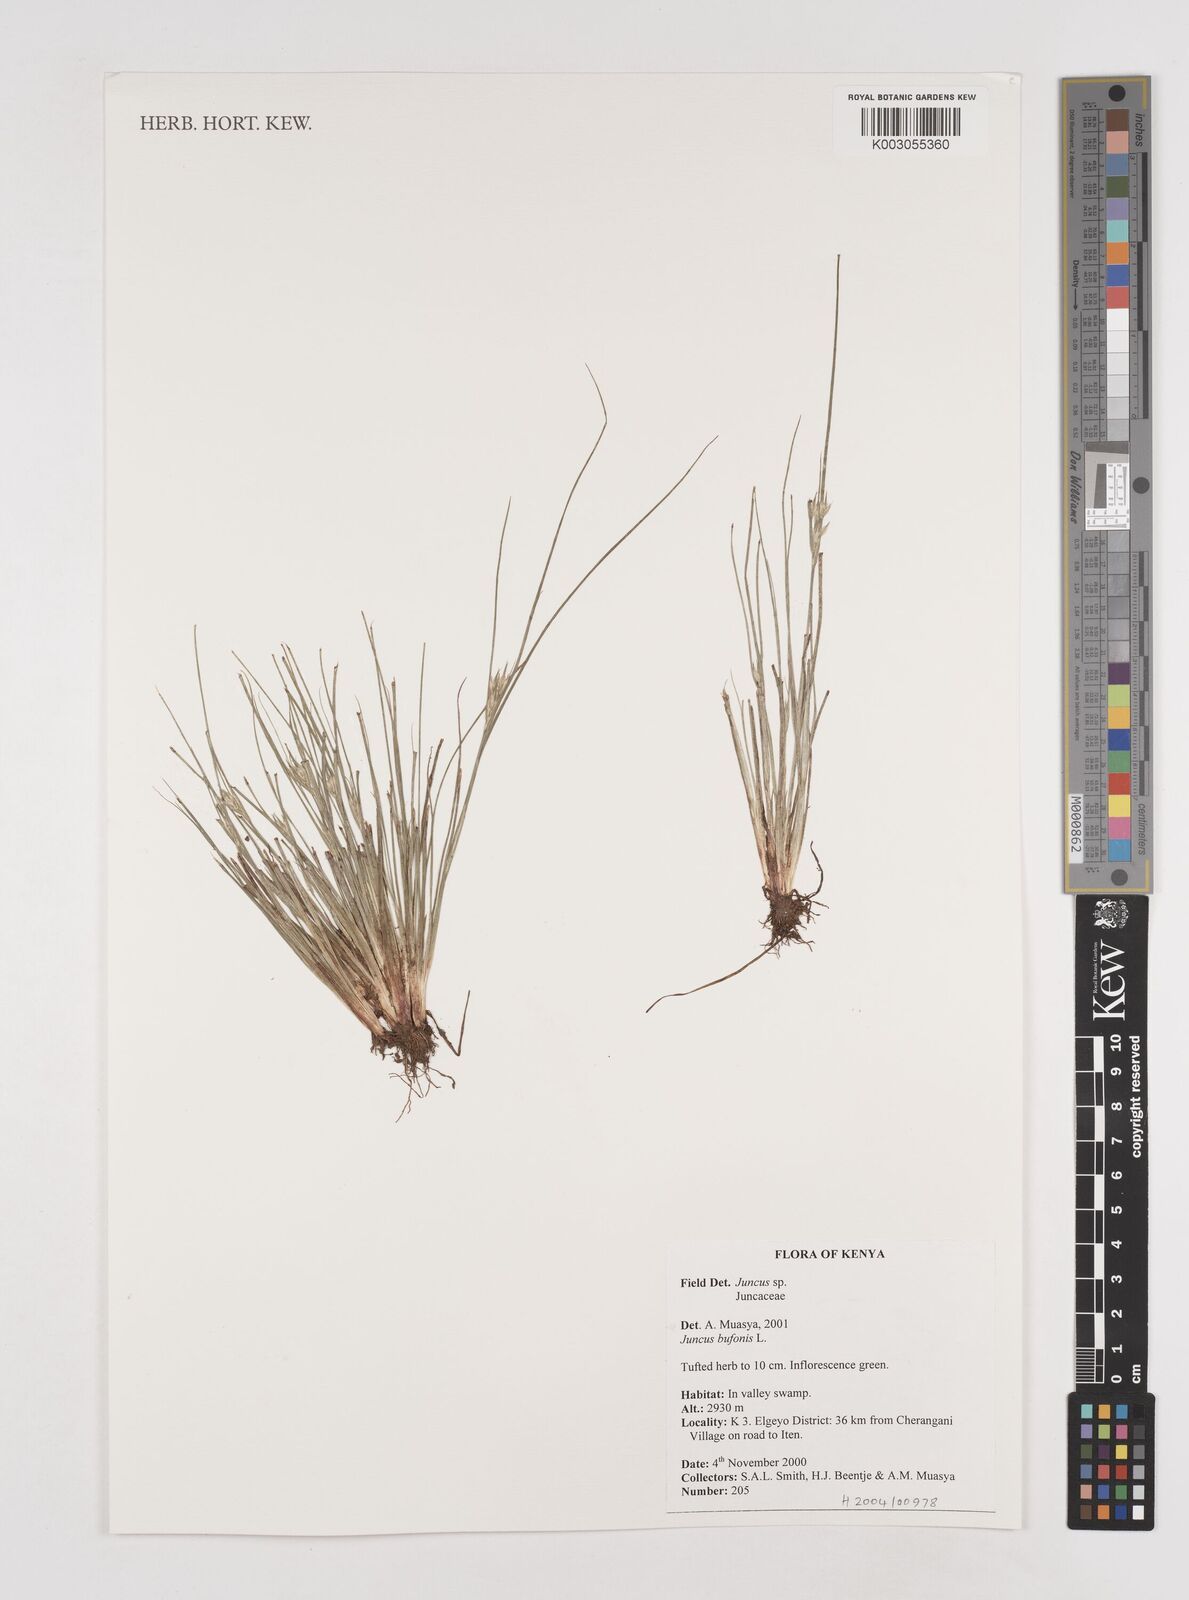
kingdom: Plantae
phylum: Tracheophyta
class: Liliopsida
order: Poales
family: Juncaceae
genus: Juncus
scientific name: Juncus
